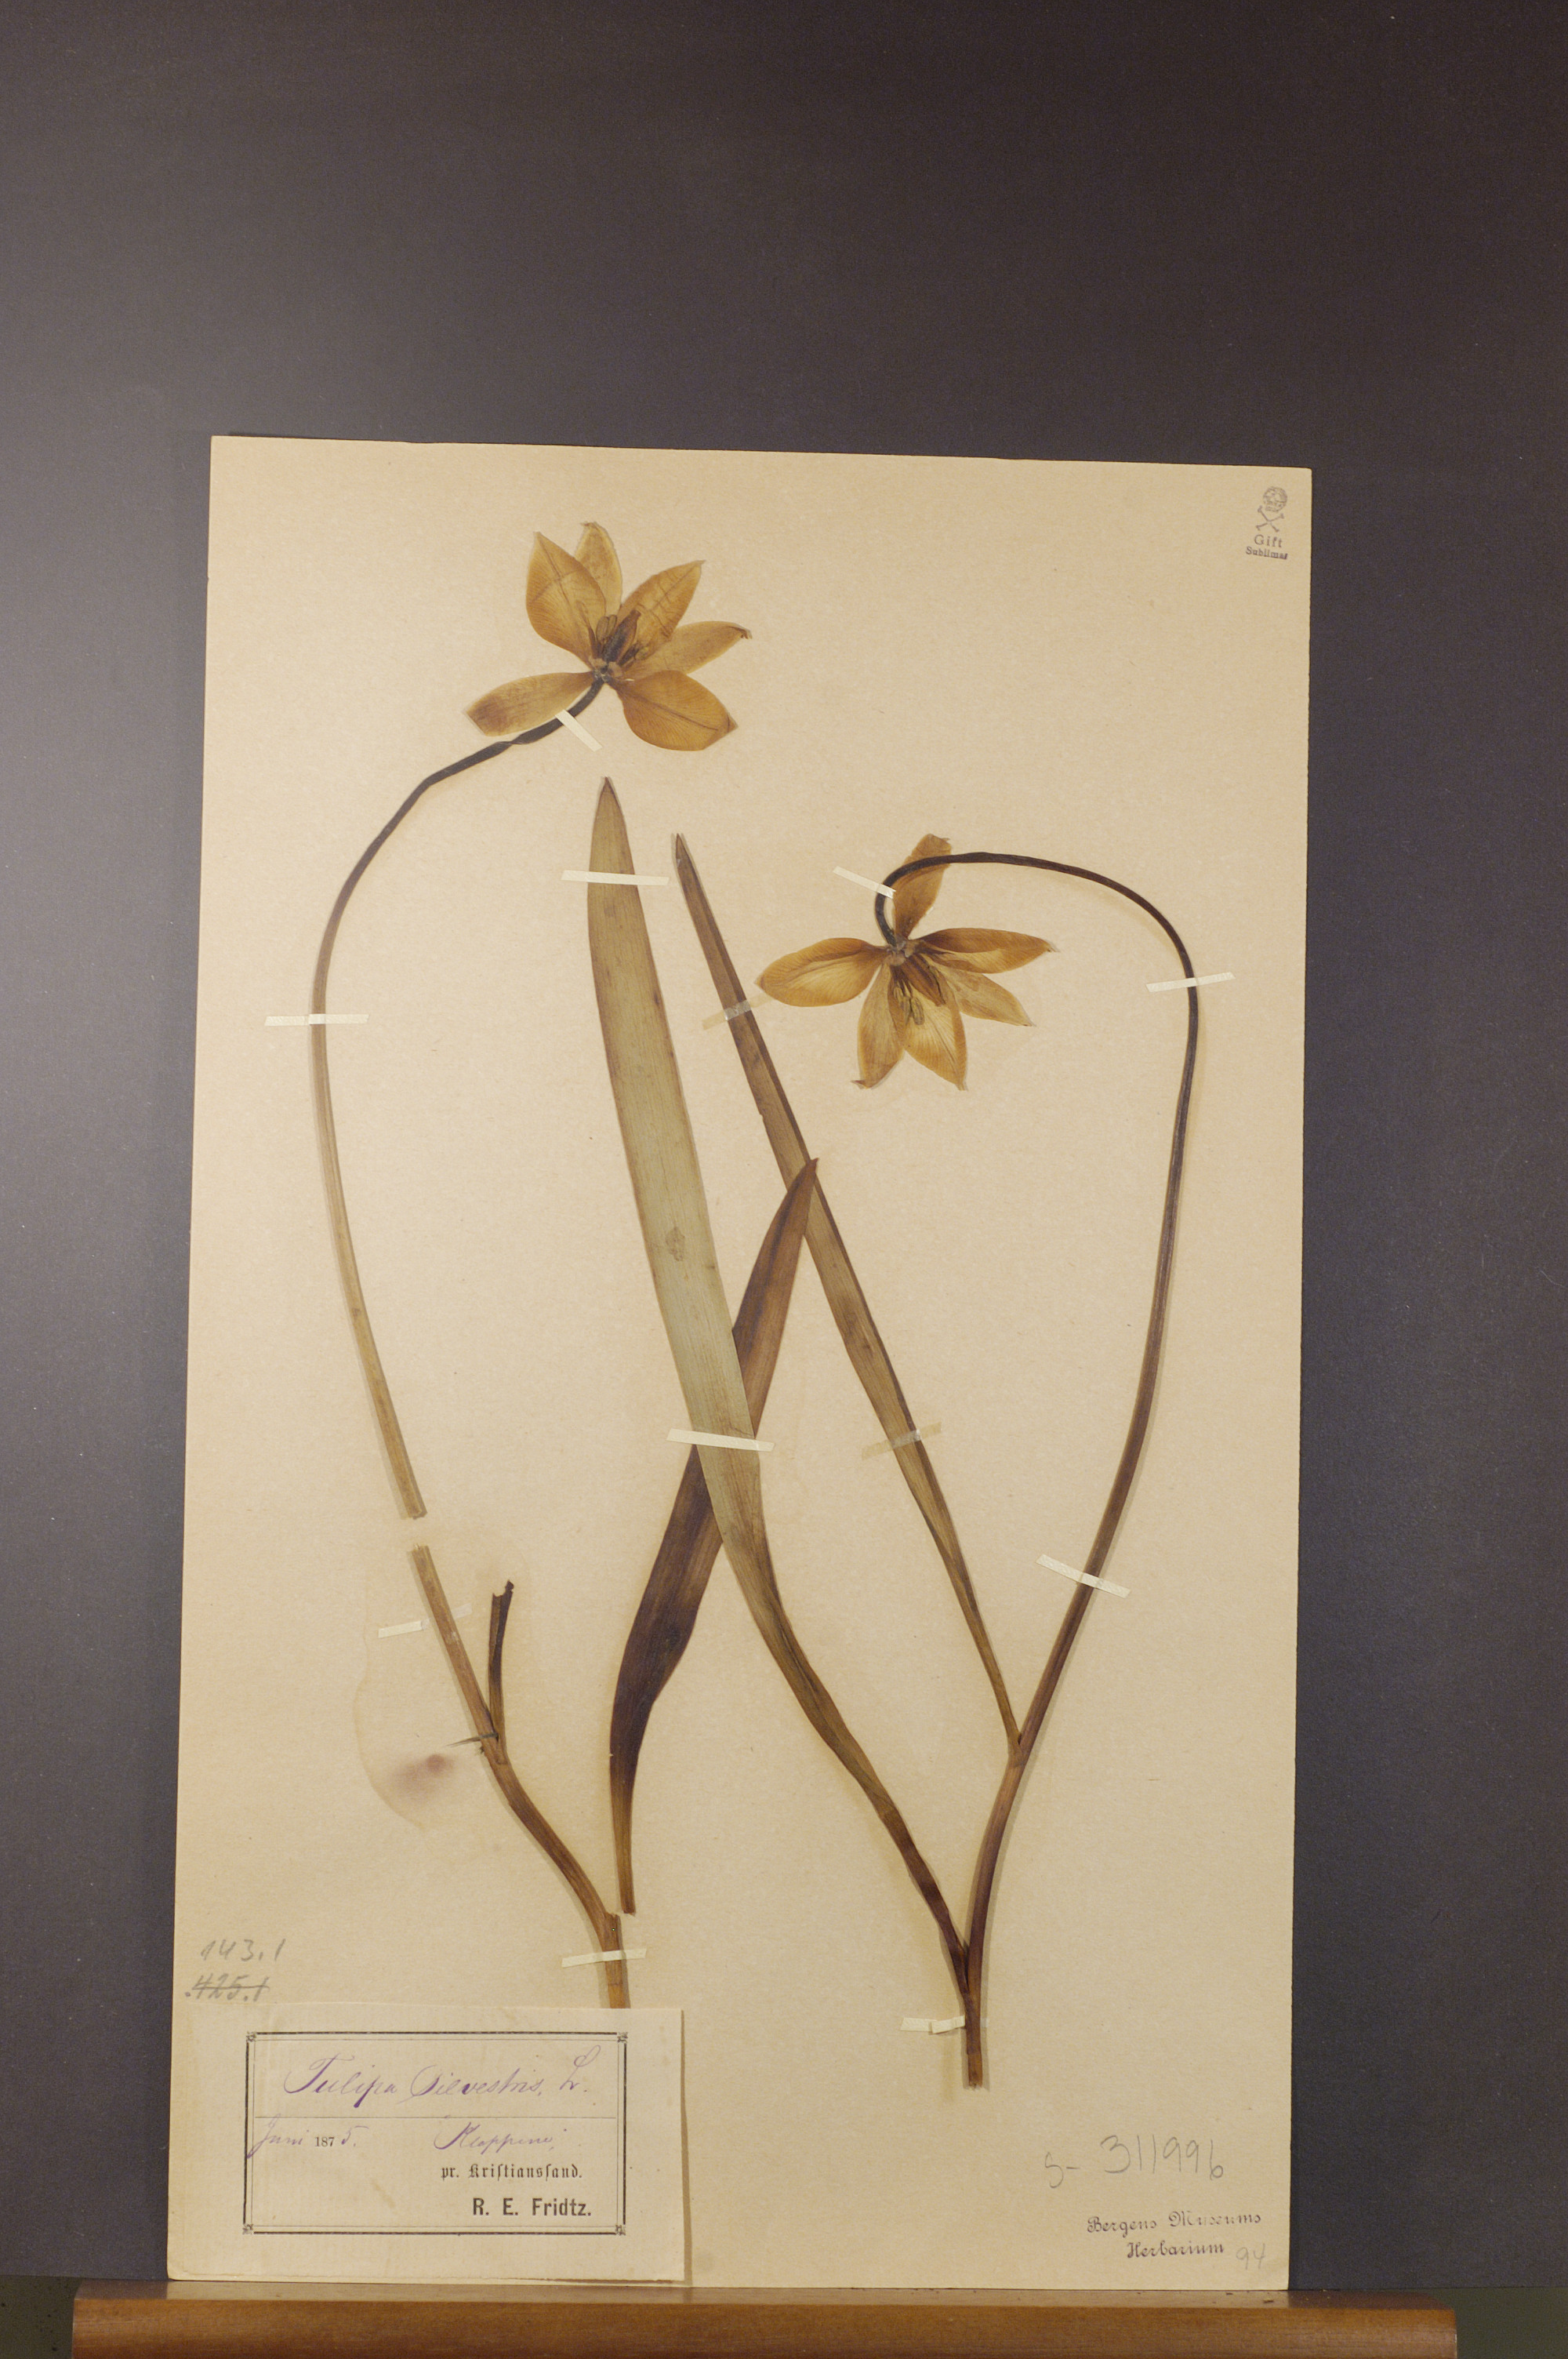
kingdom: Plantae
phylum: Tracheophyta
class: Liliopsida
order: Liliales
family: Liliaceae
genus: Tulipa
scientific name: Tulipa sylvestris
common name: Wild tulip
